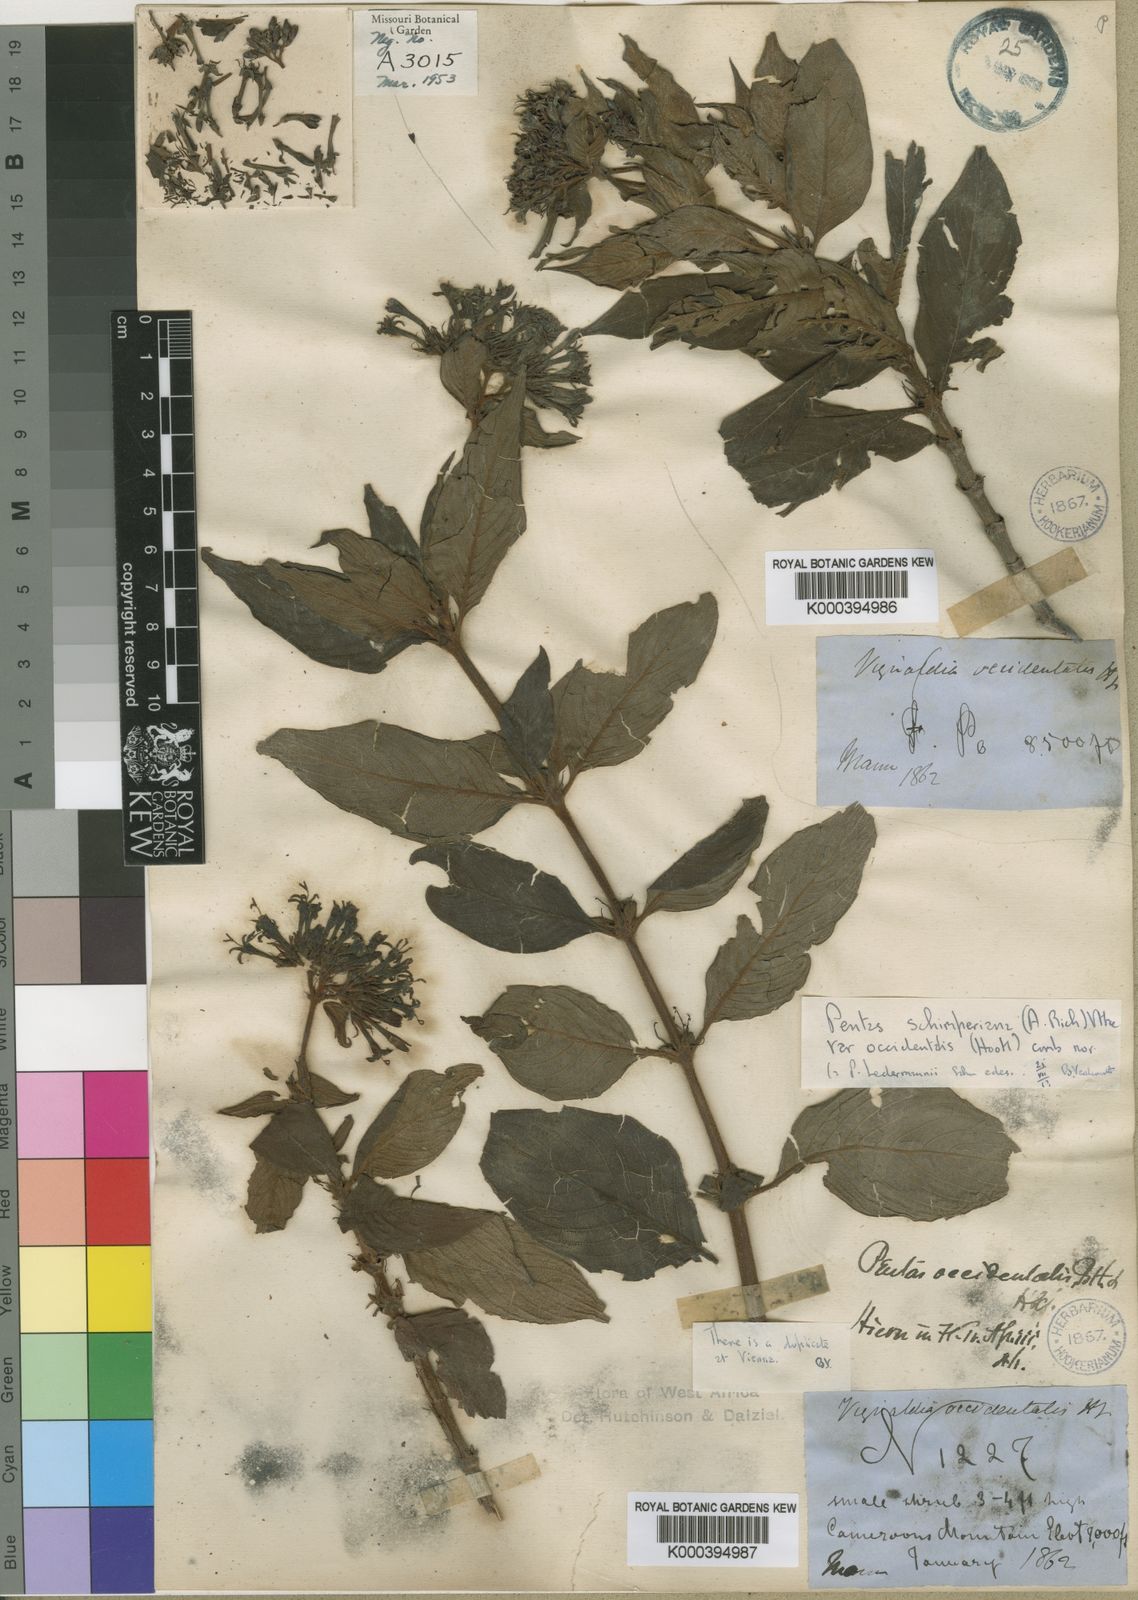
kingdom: Plantae
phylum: Tracheophyta
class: Magnoliopsida
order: Gentianales
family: Rubiaceae
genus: Pentas
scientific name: Pentas schimperi
